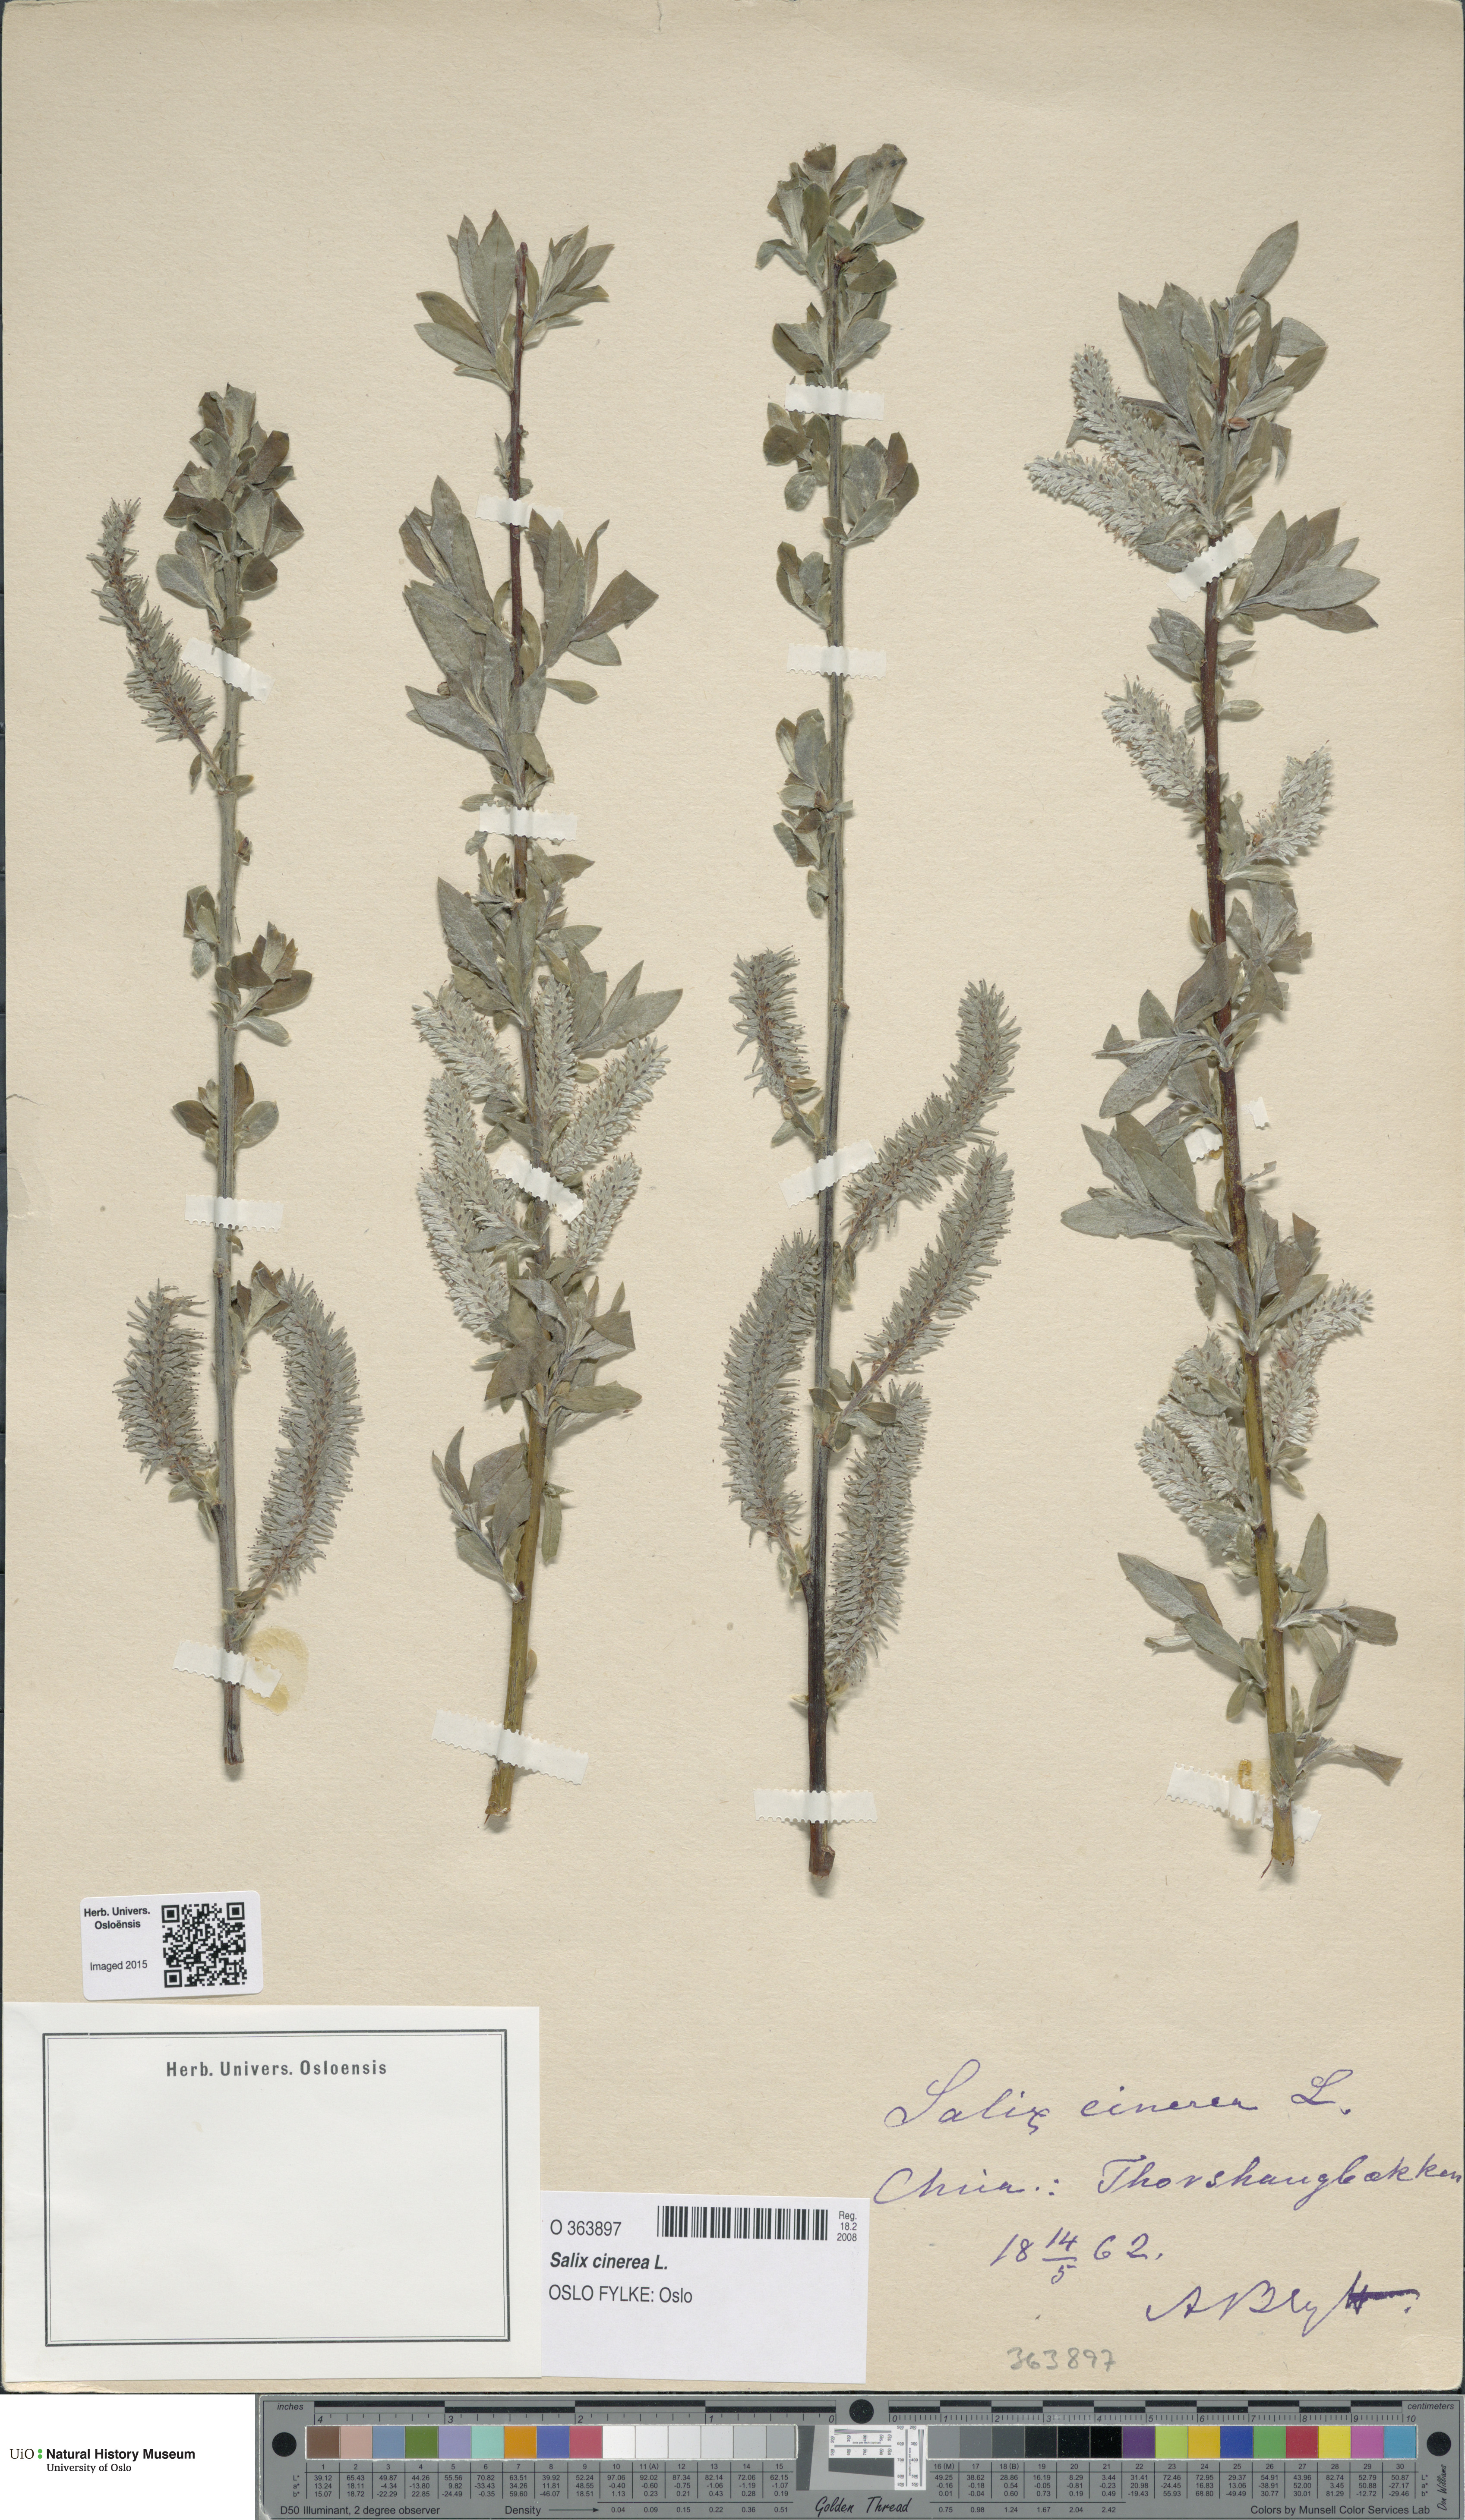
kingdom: Plantae
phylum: Tracheophyta
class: Magnoliopsida
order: Malpighiales
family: Salicaceae
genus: Salix
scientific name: Salix cinerea
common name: Common sallow
